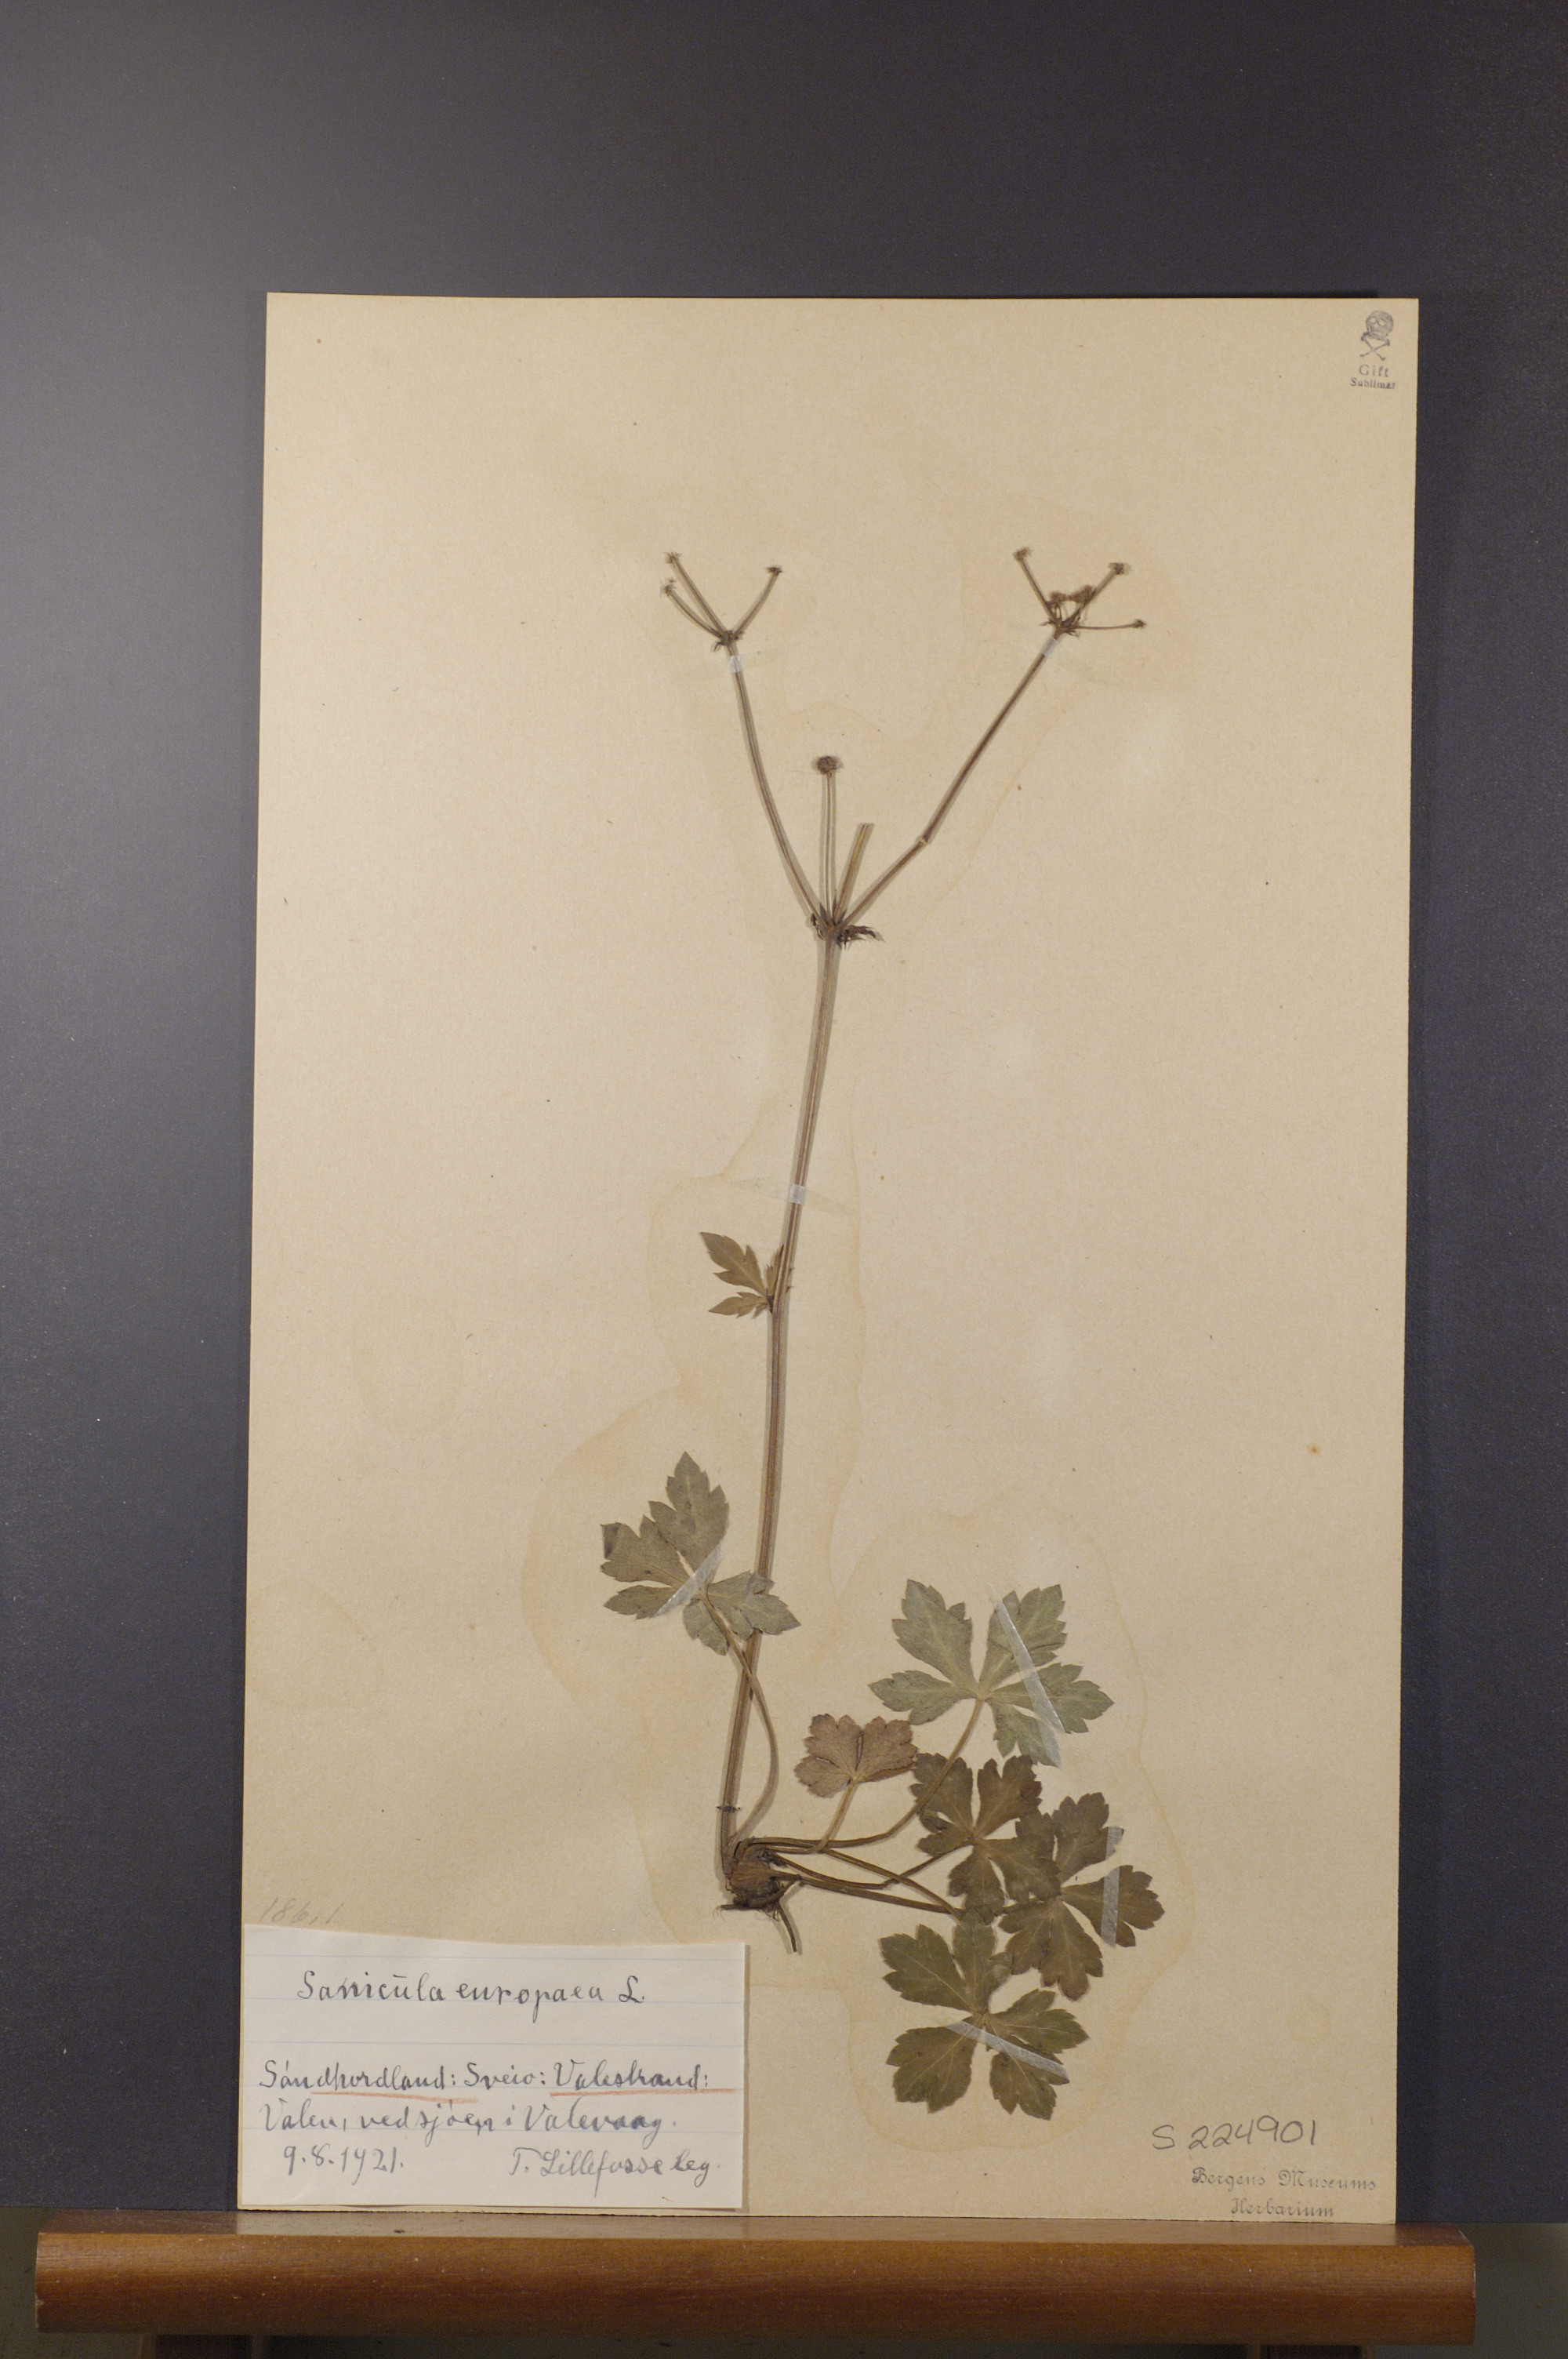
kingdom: Plantae
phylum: Tracheophyta
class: Magnoliopsida
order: Apiales
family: Apiaceae
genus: Sanicula
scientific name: Sanicula europaea
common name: Sanicle
